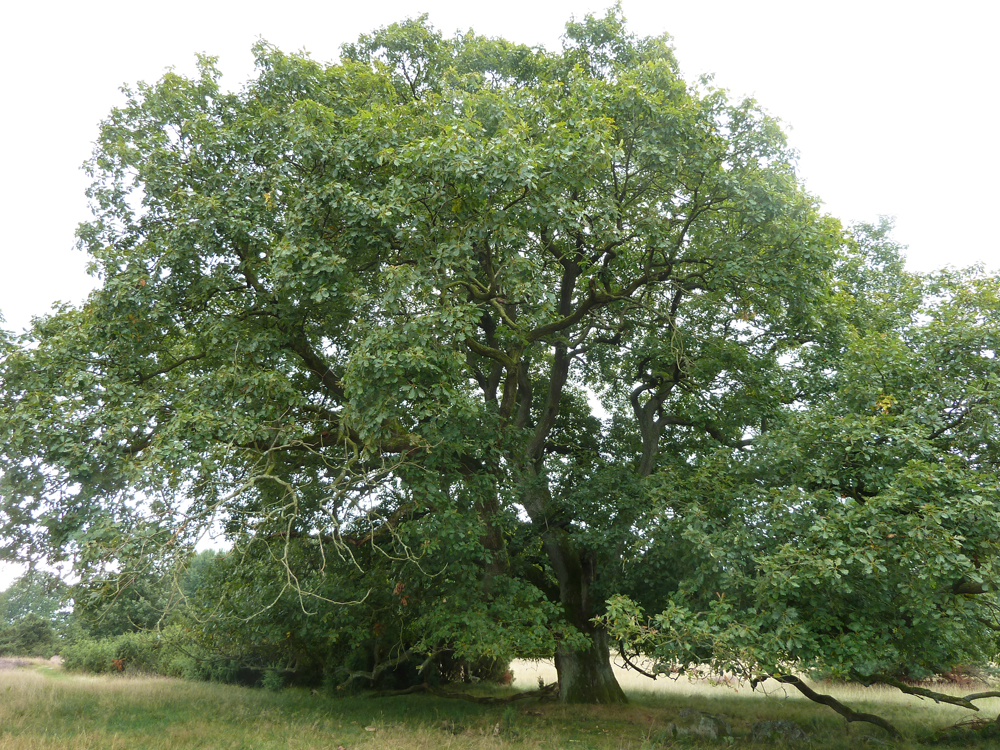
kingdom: Plantae
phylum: Tracheophyta
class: Magnoliopsida
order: Fagales
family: Fagaceae
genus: Quercus
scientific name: Quercus petraea
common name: Sessile oak
